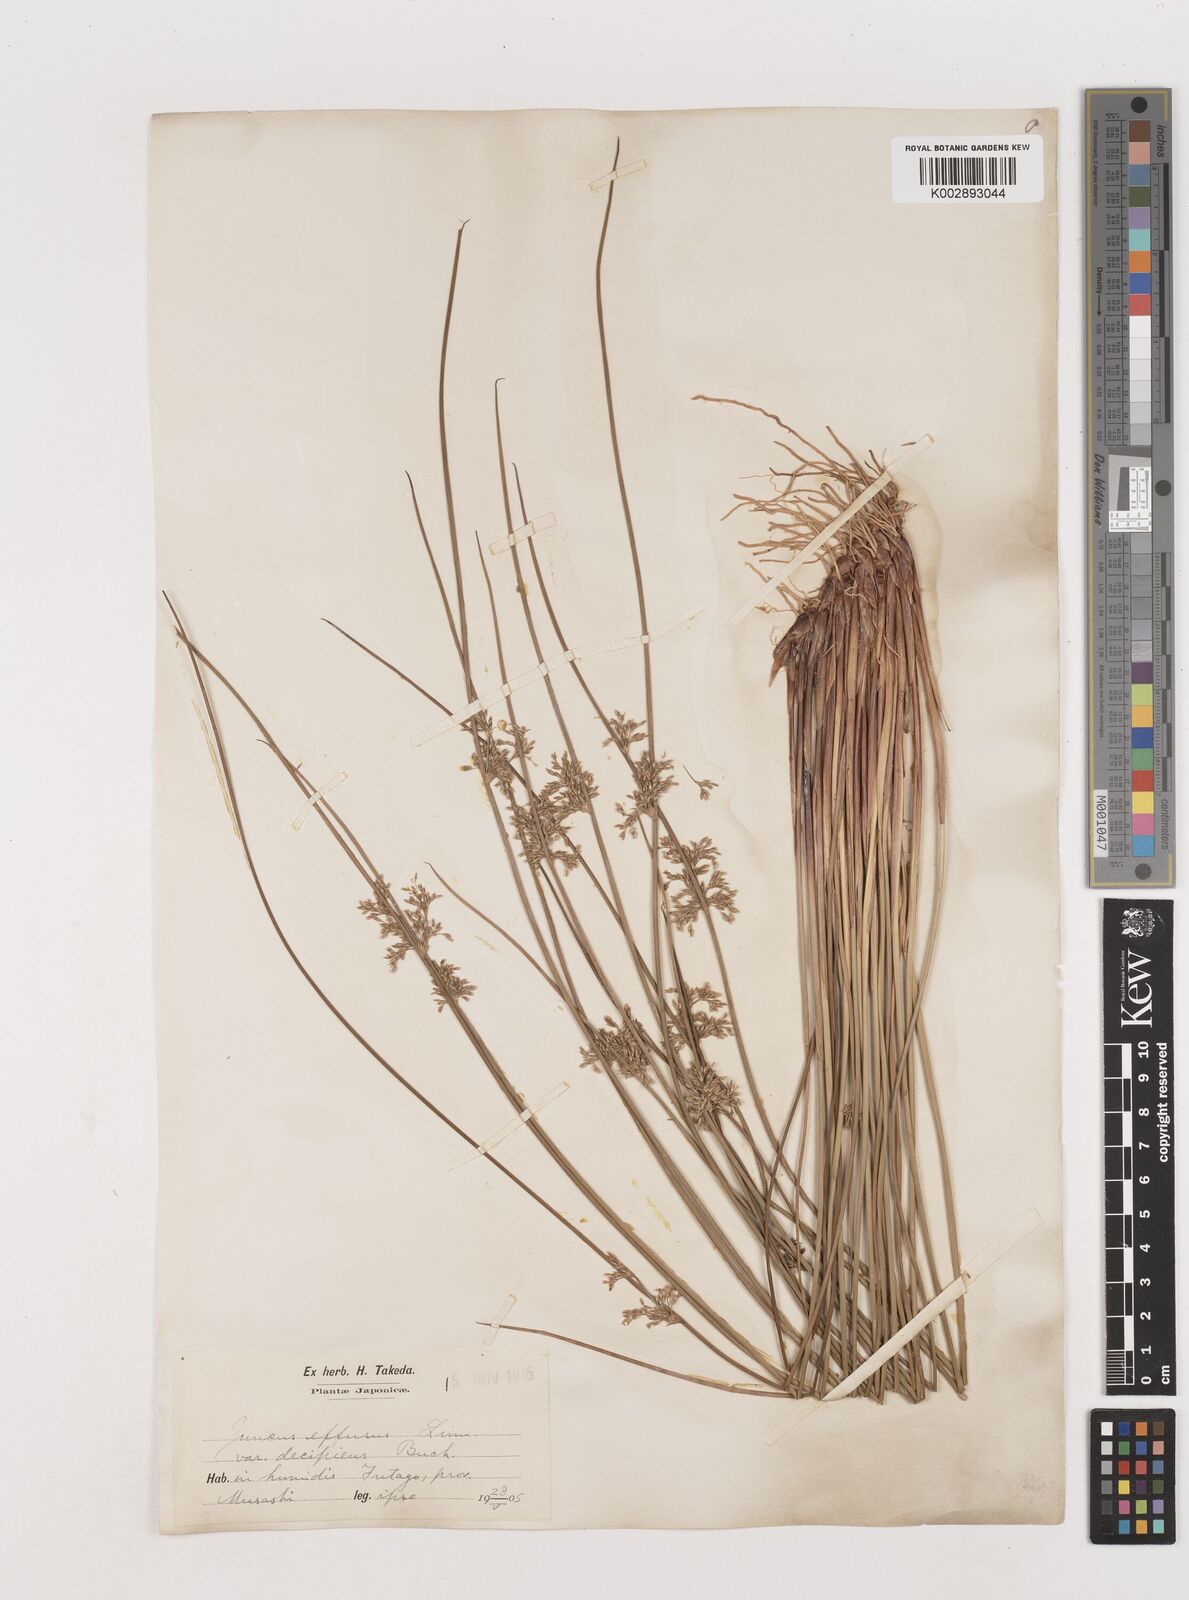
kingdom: Plantae
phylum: Tracheophyta
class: Liliopsida
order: Poales
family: Juncaceae
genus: Juncus
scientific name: Juncus decipiens
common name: Lamp rush
